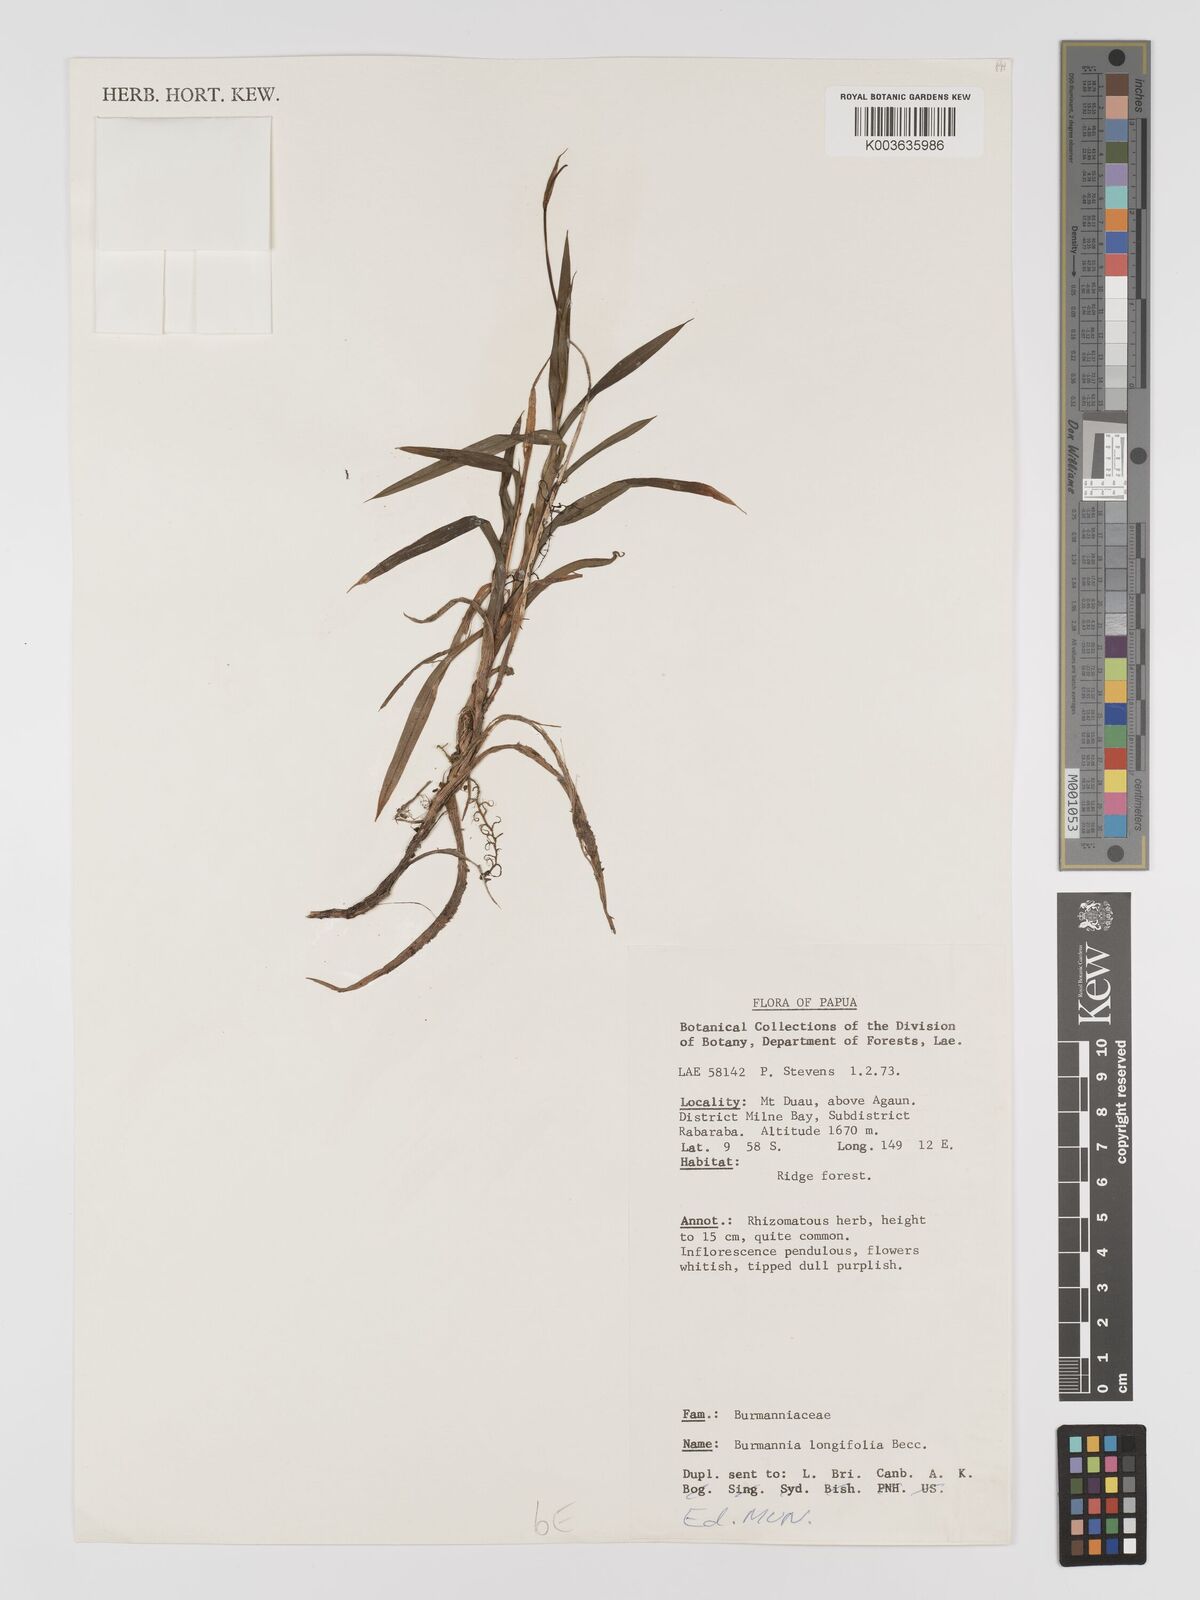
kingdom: Plantae
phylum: Tracheophyta
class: Liliopsida
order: Dioscoreales
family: Burmanniaceae
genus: Burmannia
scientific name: Burmannia longifolia
